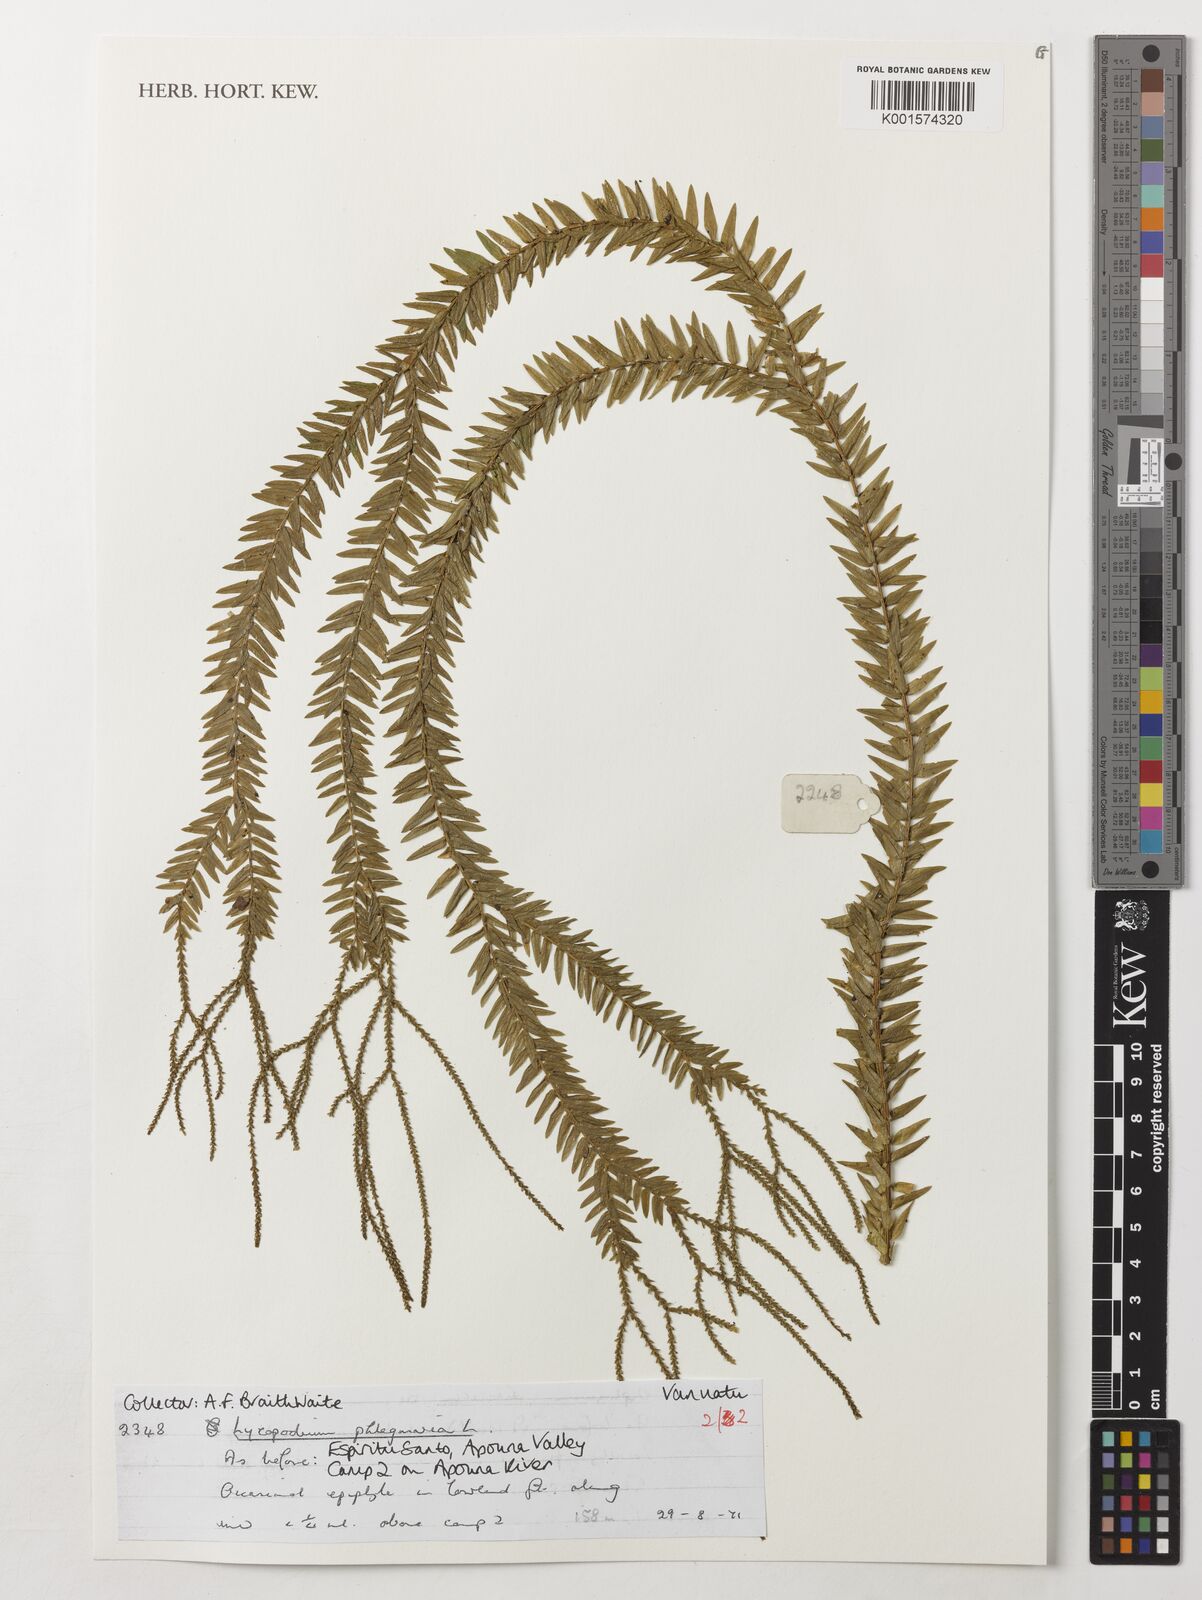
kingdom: Plantae
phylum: Tracheophyta
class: Lycopodiopsida
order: Lycopodiales
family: Lycopodiaceae
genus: Phlegmariurus
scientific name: Phlegmariurus phlegmaria
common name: Coarse tassel-fern
